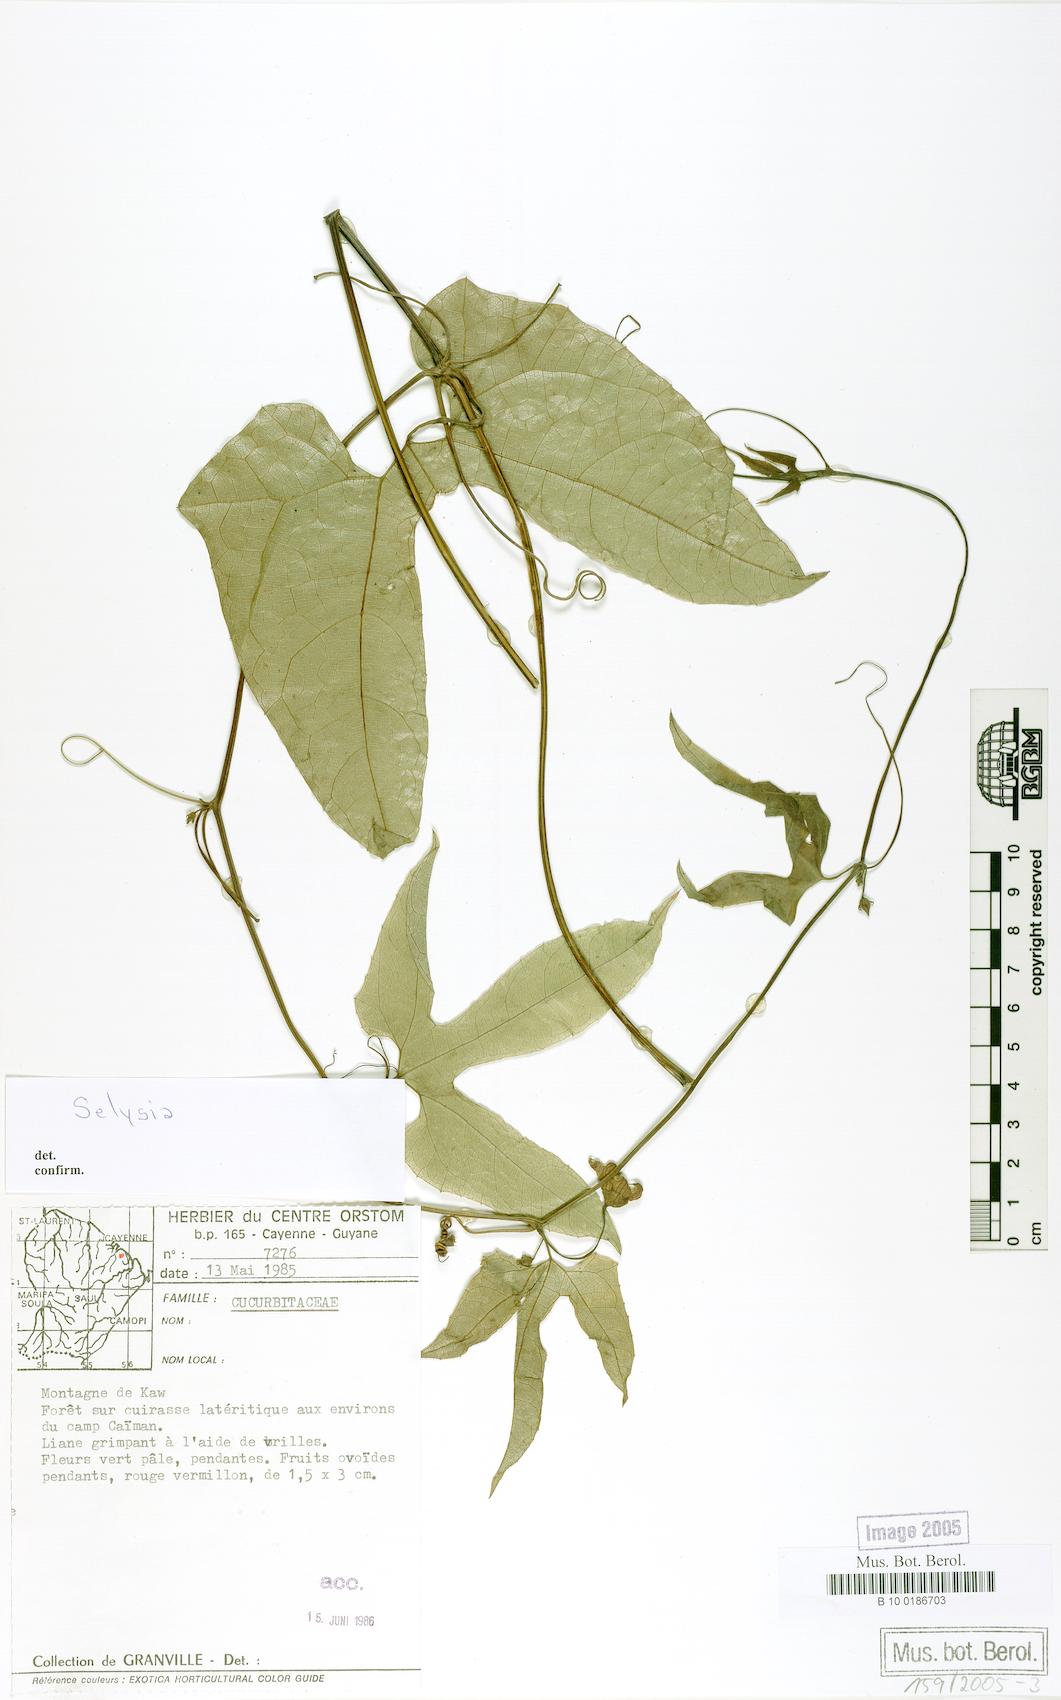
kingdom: Plantae
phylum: Tracheophyta
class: Magnoliopsida
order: Cucurbitales
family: Cucurbitaceae
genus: Selysia
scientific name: Selysia
